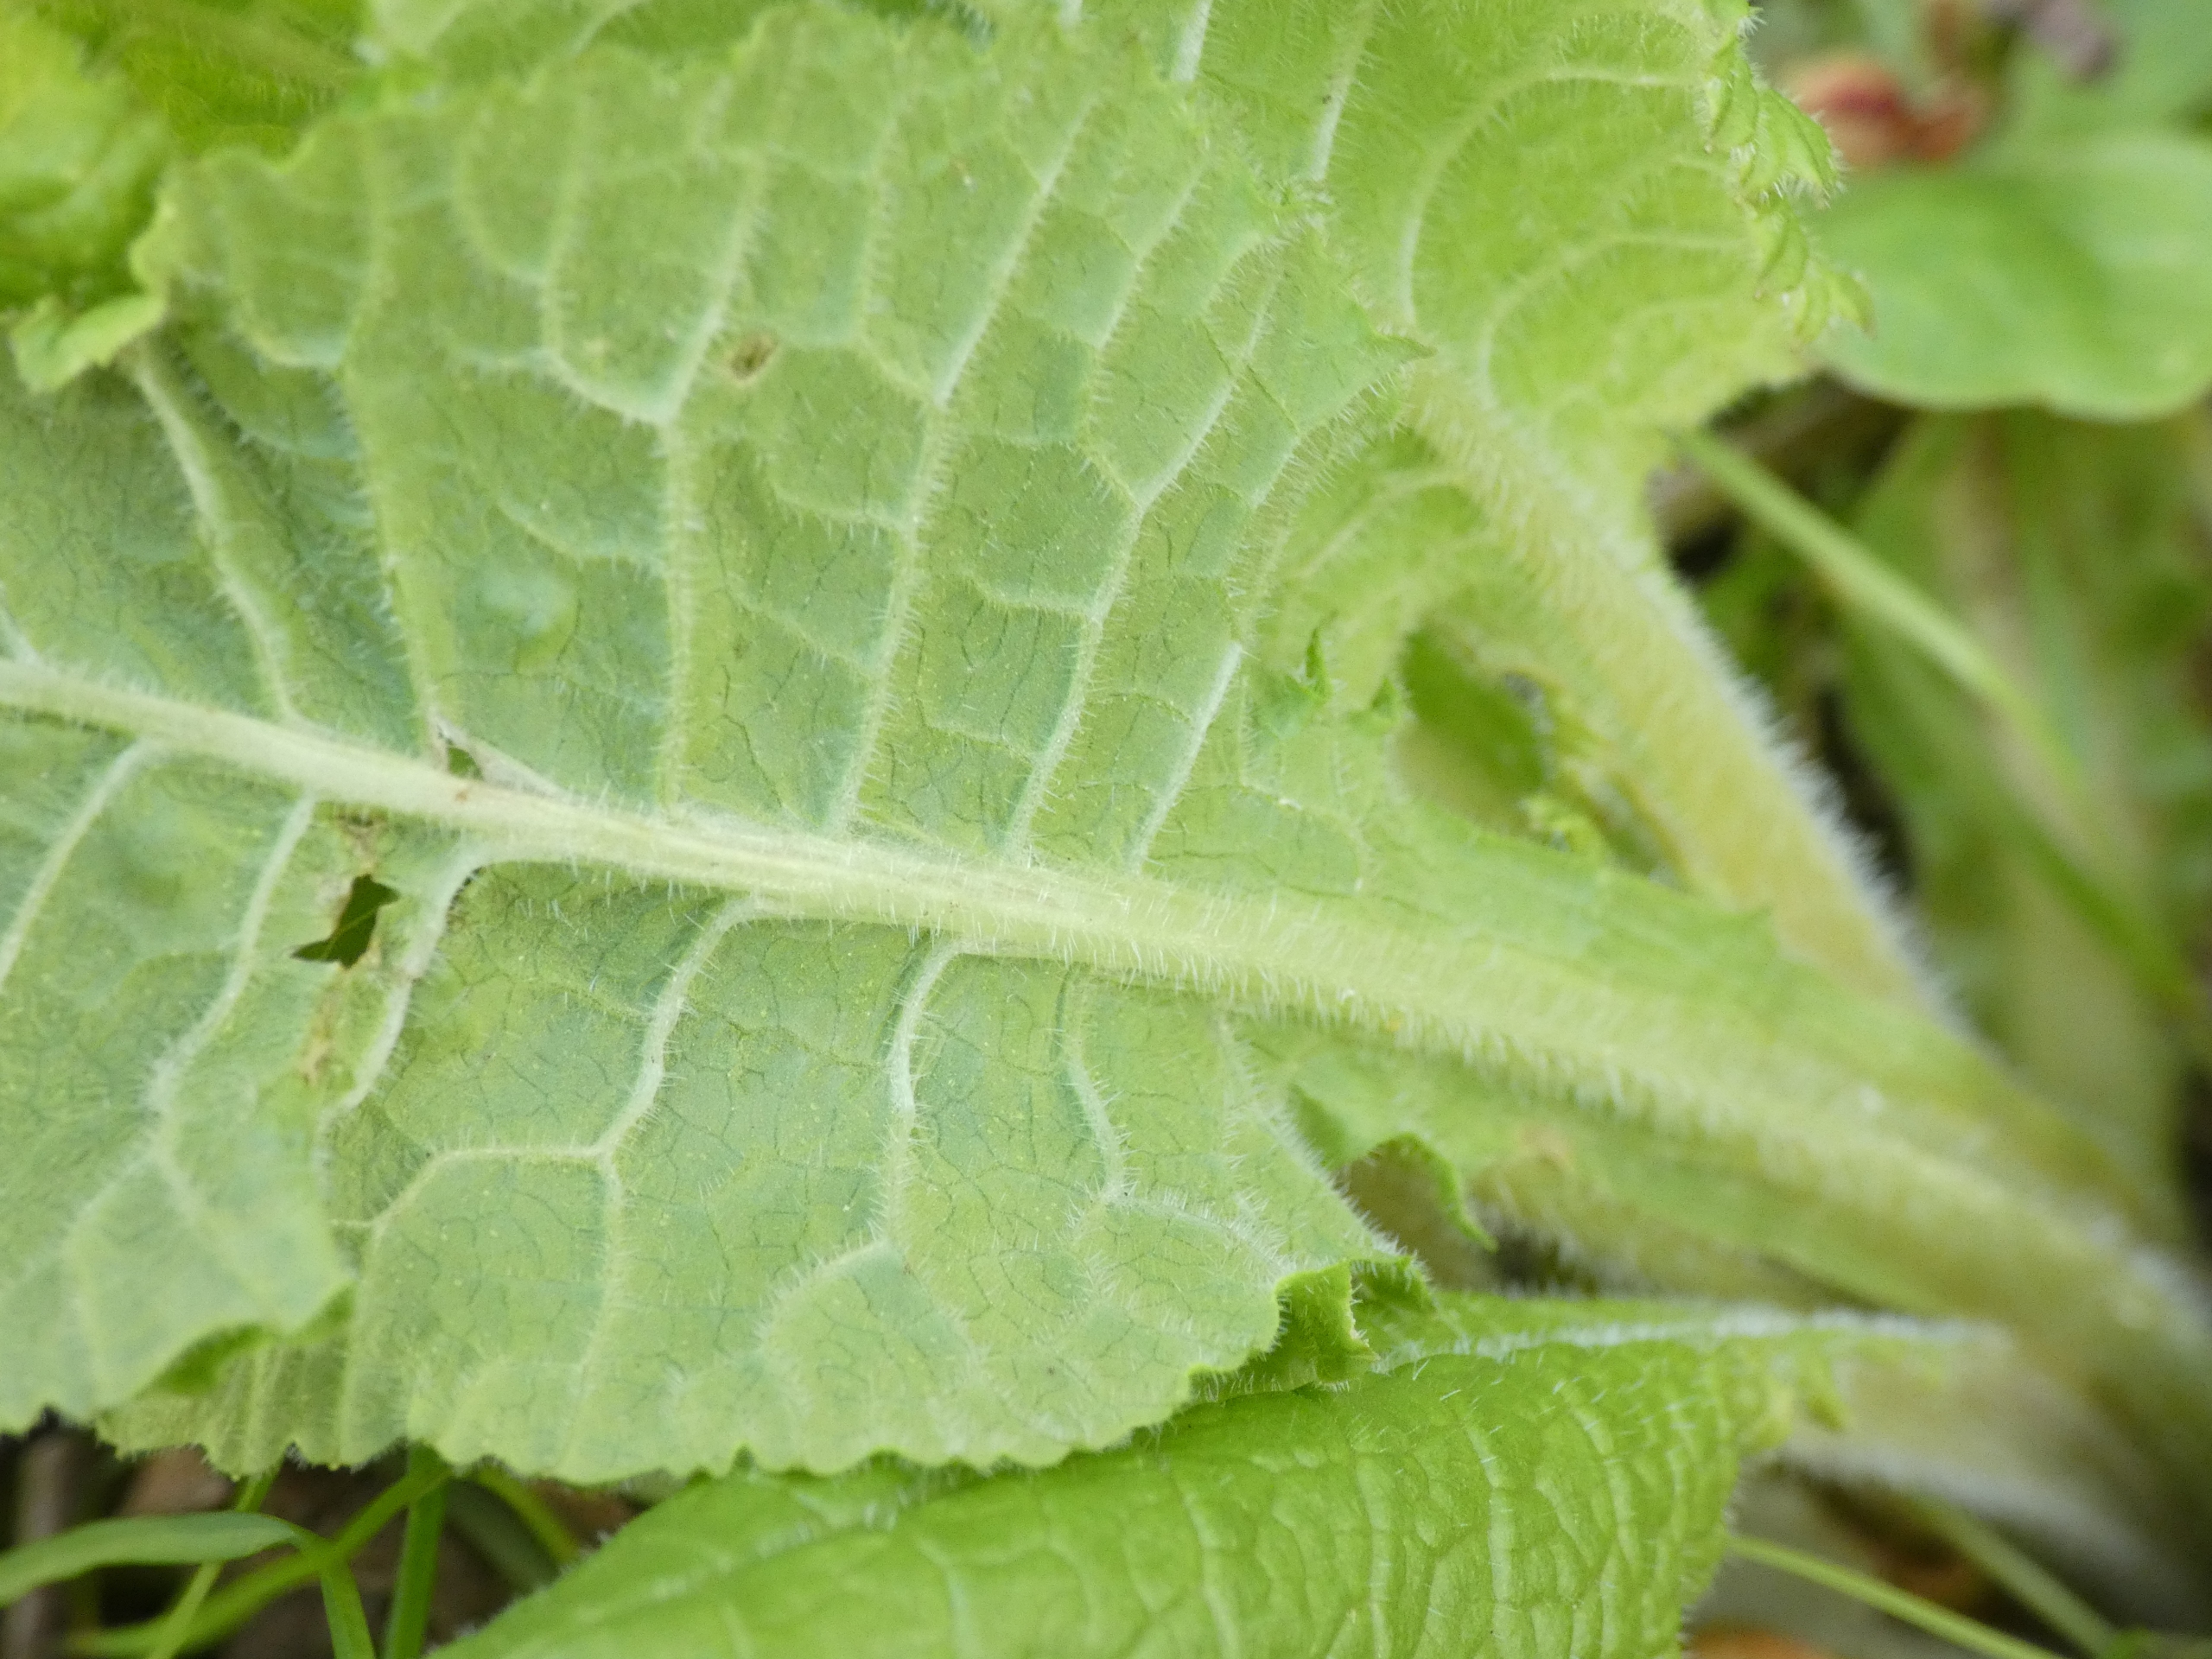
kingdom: Plantae
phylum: Tracheophyta
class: Magnoliopsida
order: Ericales
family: Primulaceae
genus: Primula
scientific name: Primula elatior
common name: Fladkravet kodriver
